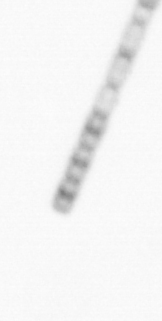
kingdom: Chromista
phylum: Ochrophyta
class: Bacillariophyceae
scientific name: Bacillariophyceae
